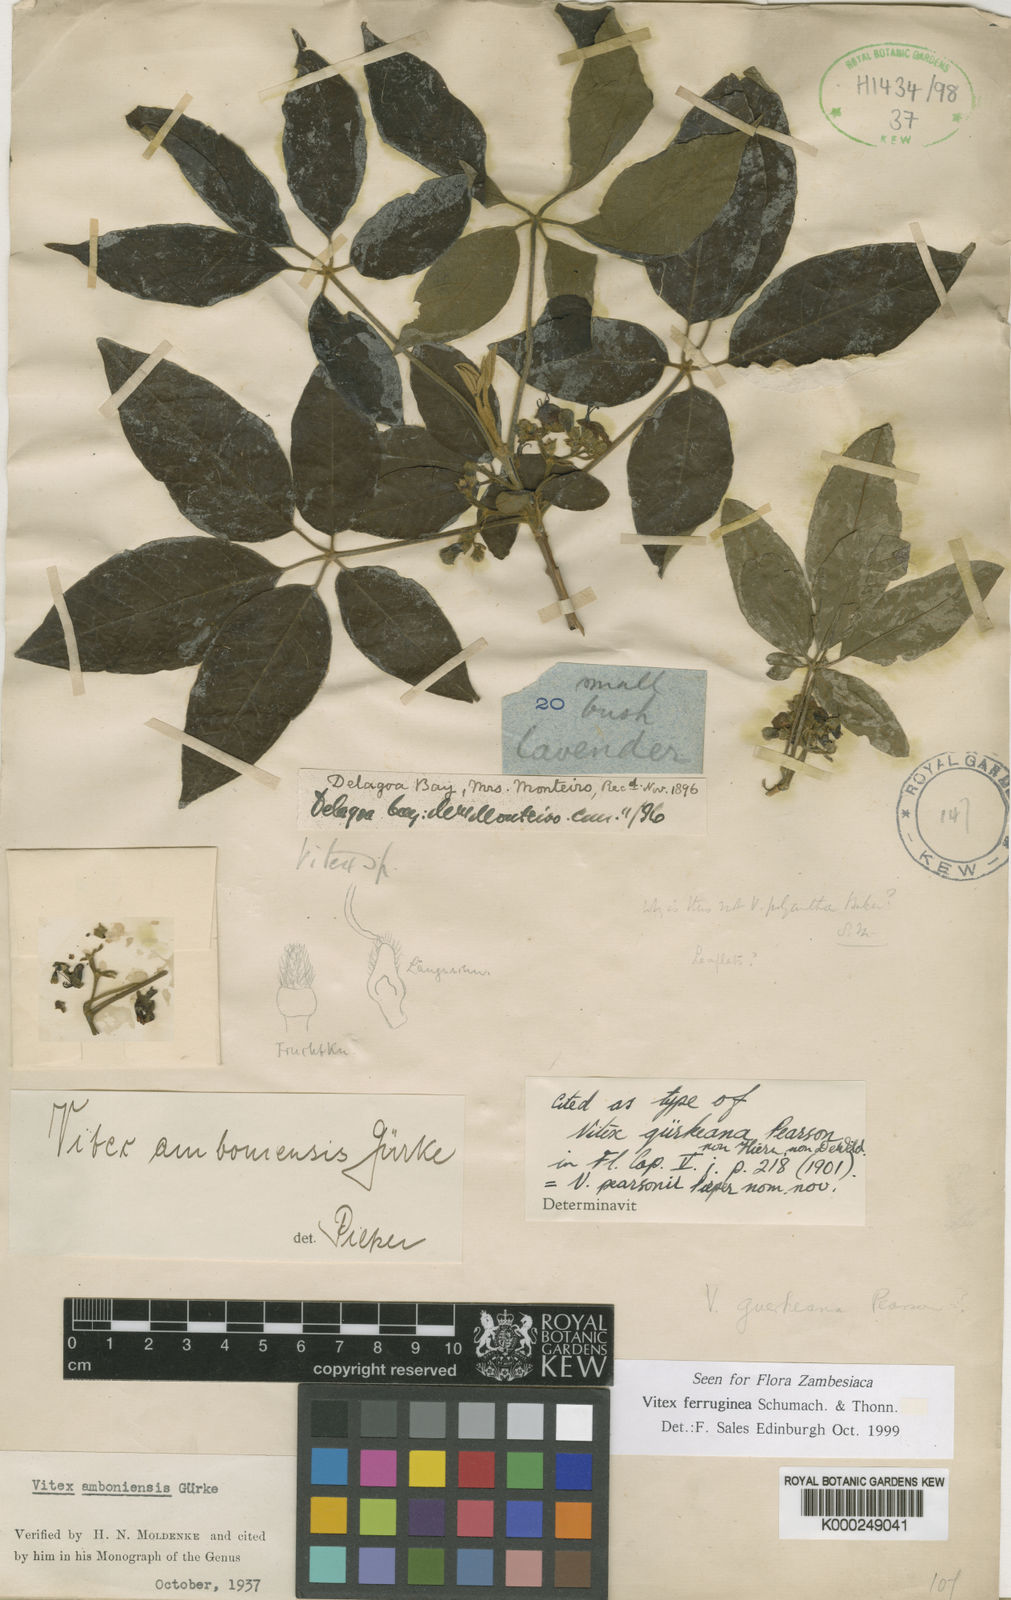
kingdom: Plantae
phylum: Tracheophyta
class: Magnoliopsida
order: Lamiales
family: Lamiaceae
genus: Vitex
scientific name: Vitex ferruginea
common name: Plum fingerleaf
